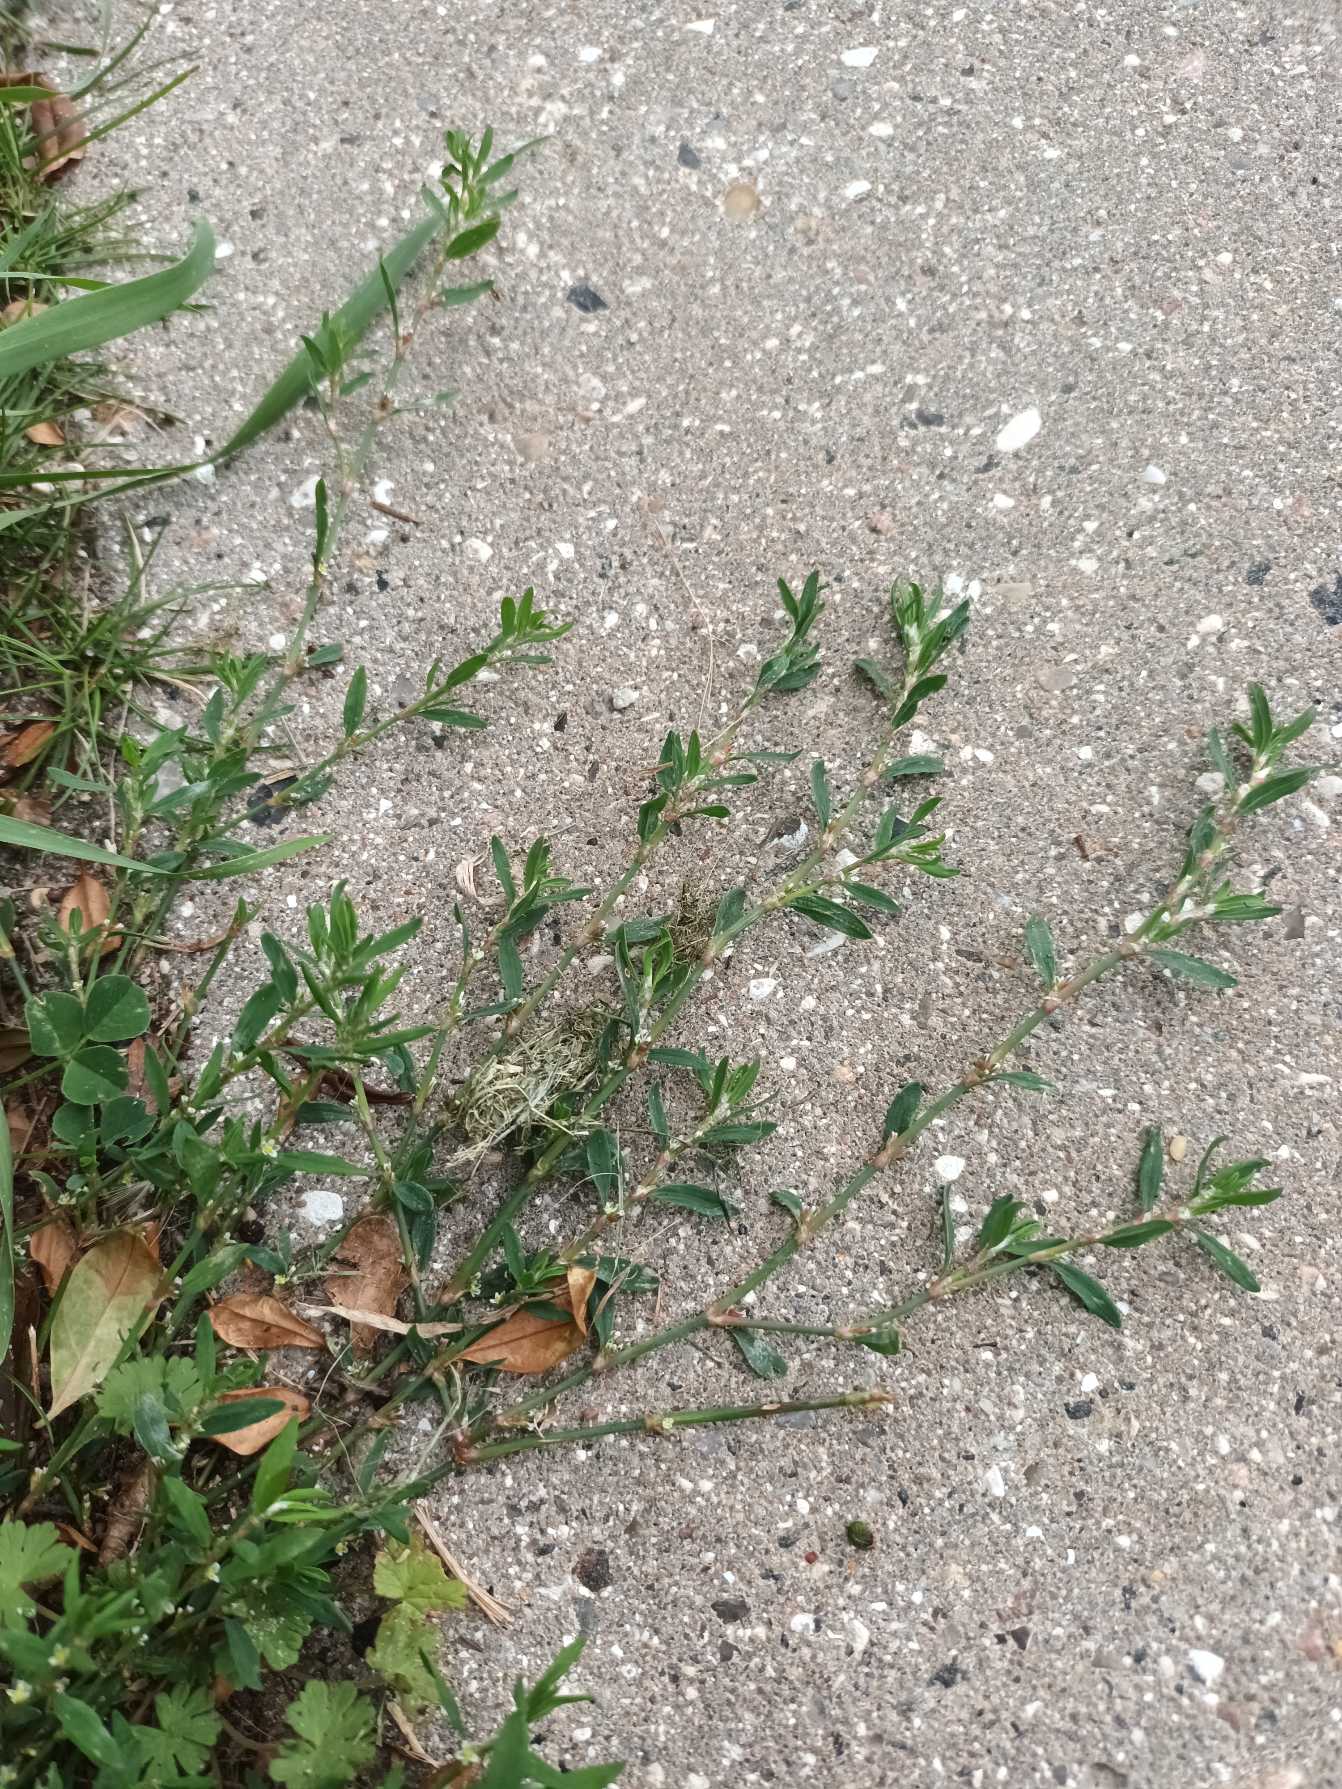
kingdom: Plantae
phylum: Tracheophyta
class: Magnoliopsida
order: Caryophyllales
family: Polygonaceae
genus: Polygonum
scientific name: Polygonum arenastrum
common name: Liggende vej-pileurt
